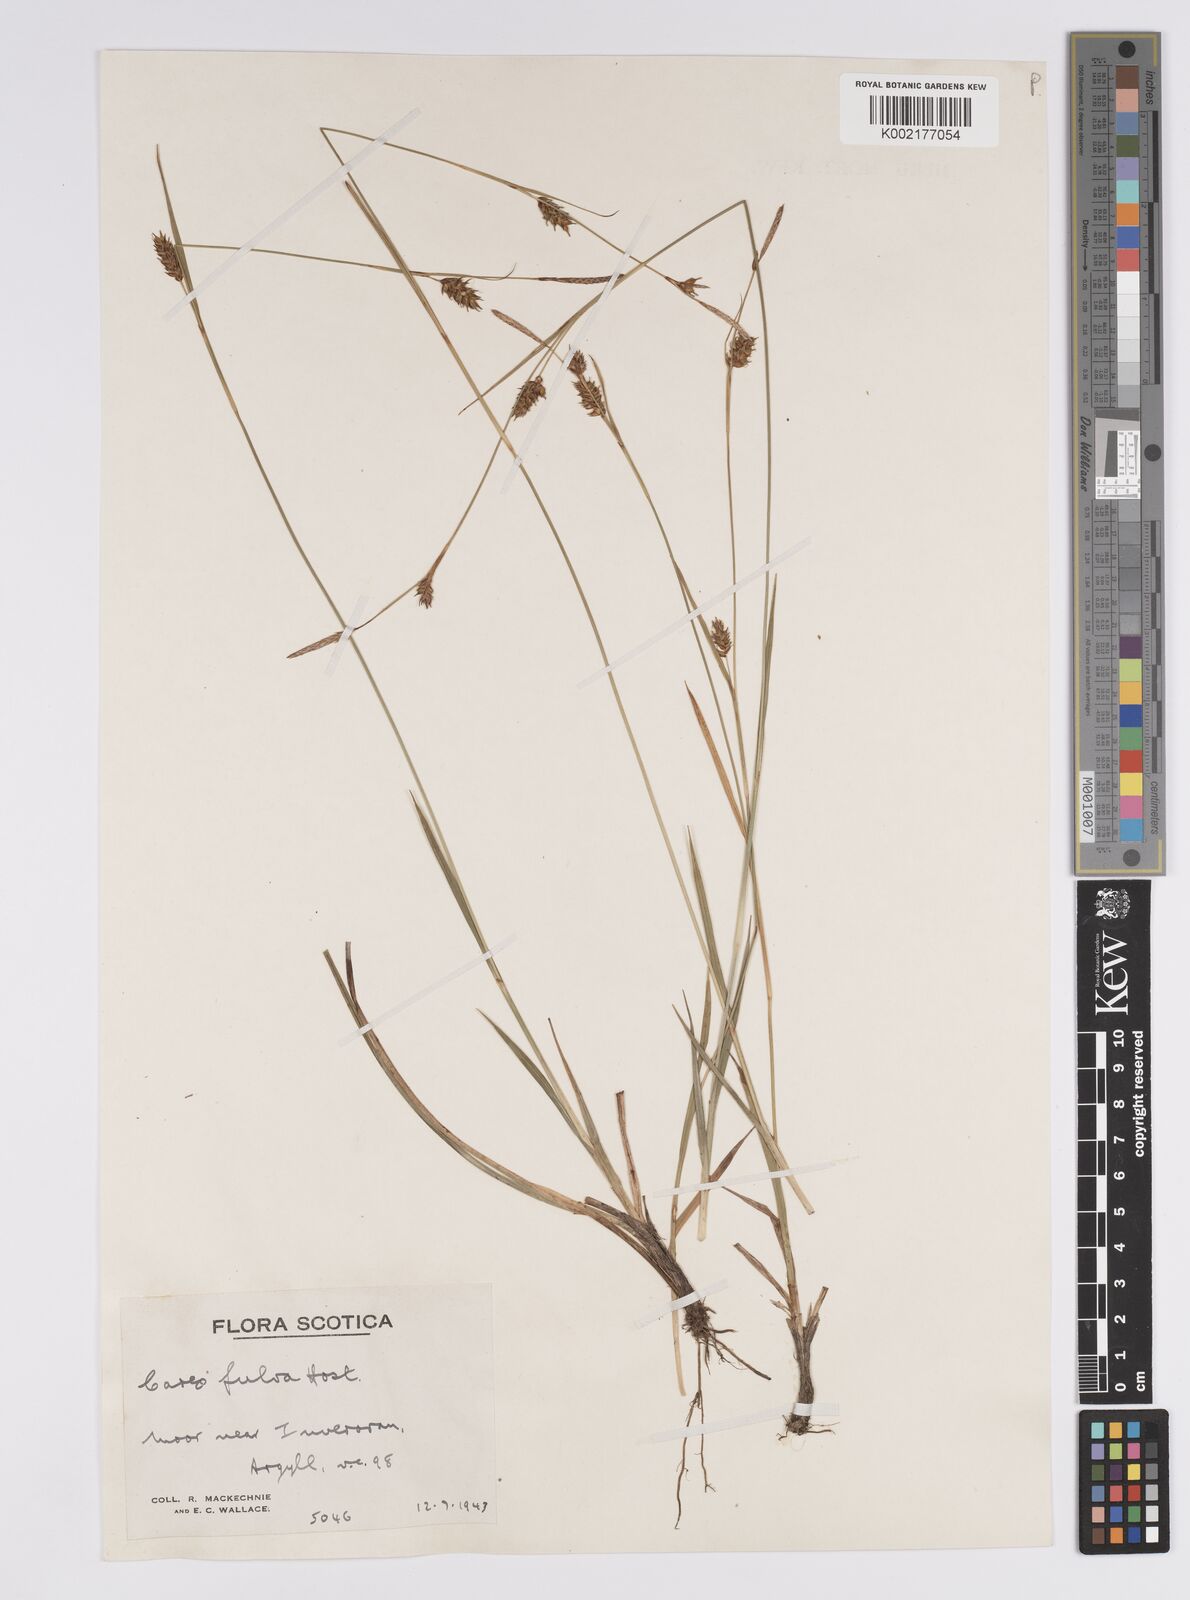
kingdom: Plantae
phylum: Tracheophyta
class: Liliopsida
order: Poales
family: Cyperaceae
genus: Carex
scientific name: Carex hostiana
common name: Tawny sedge
